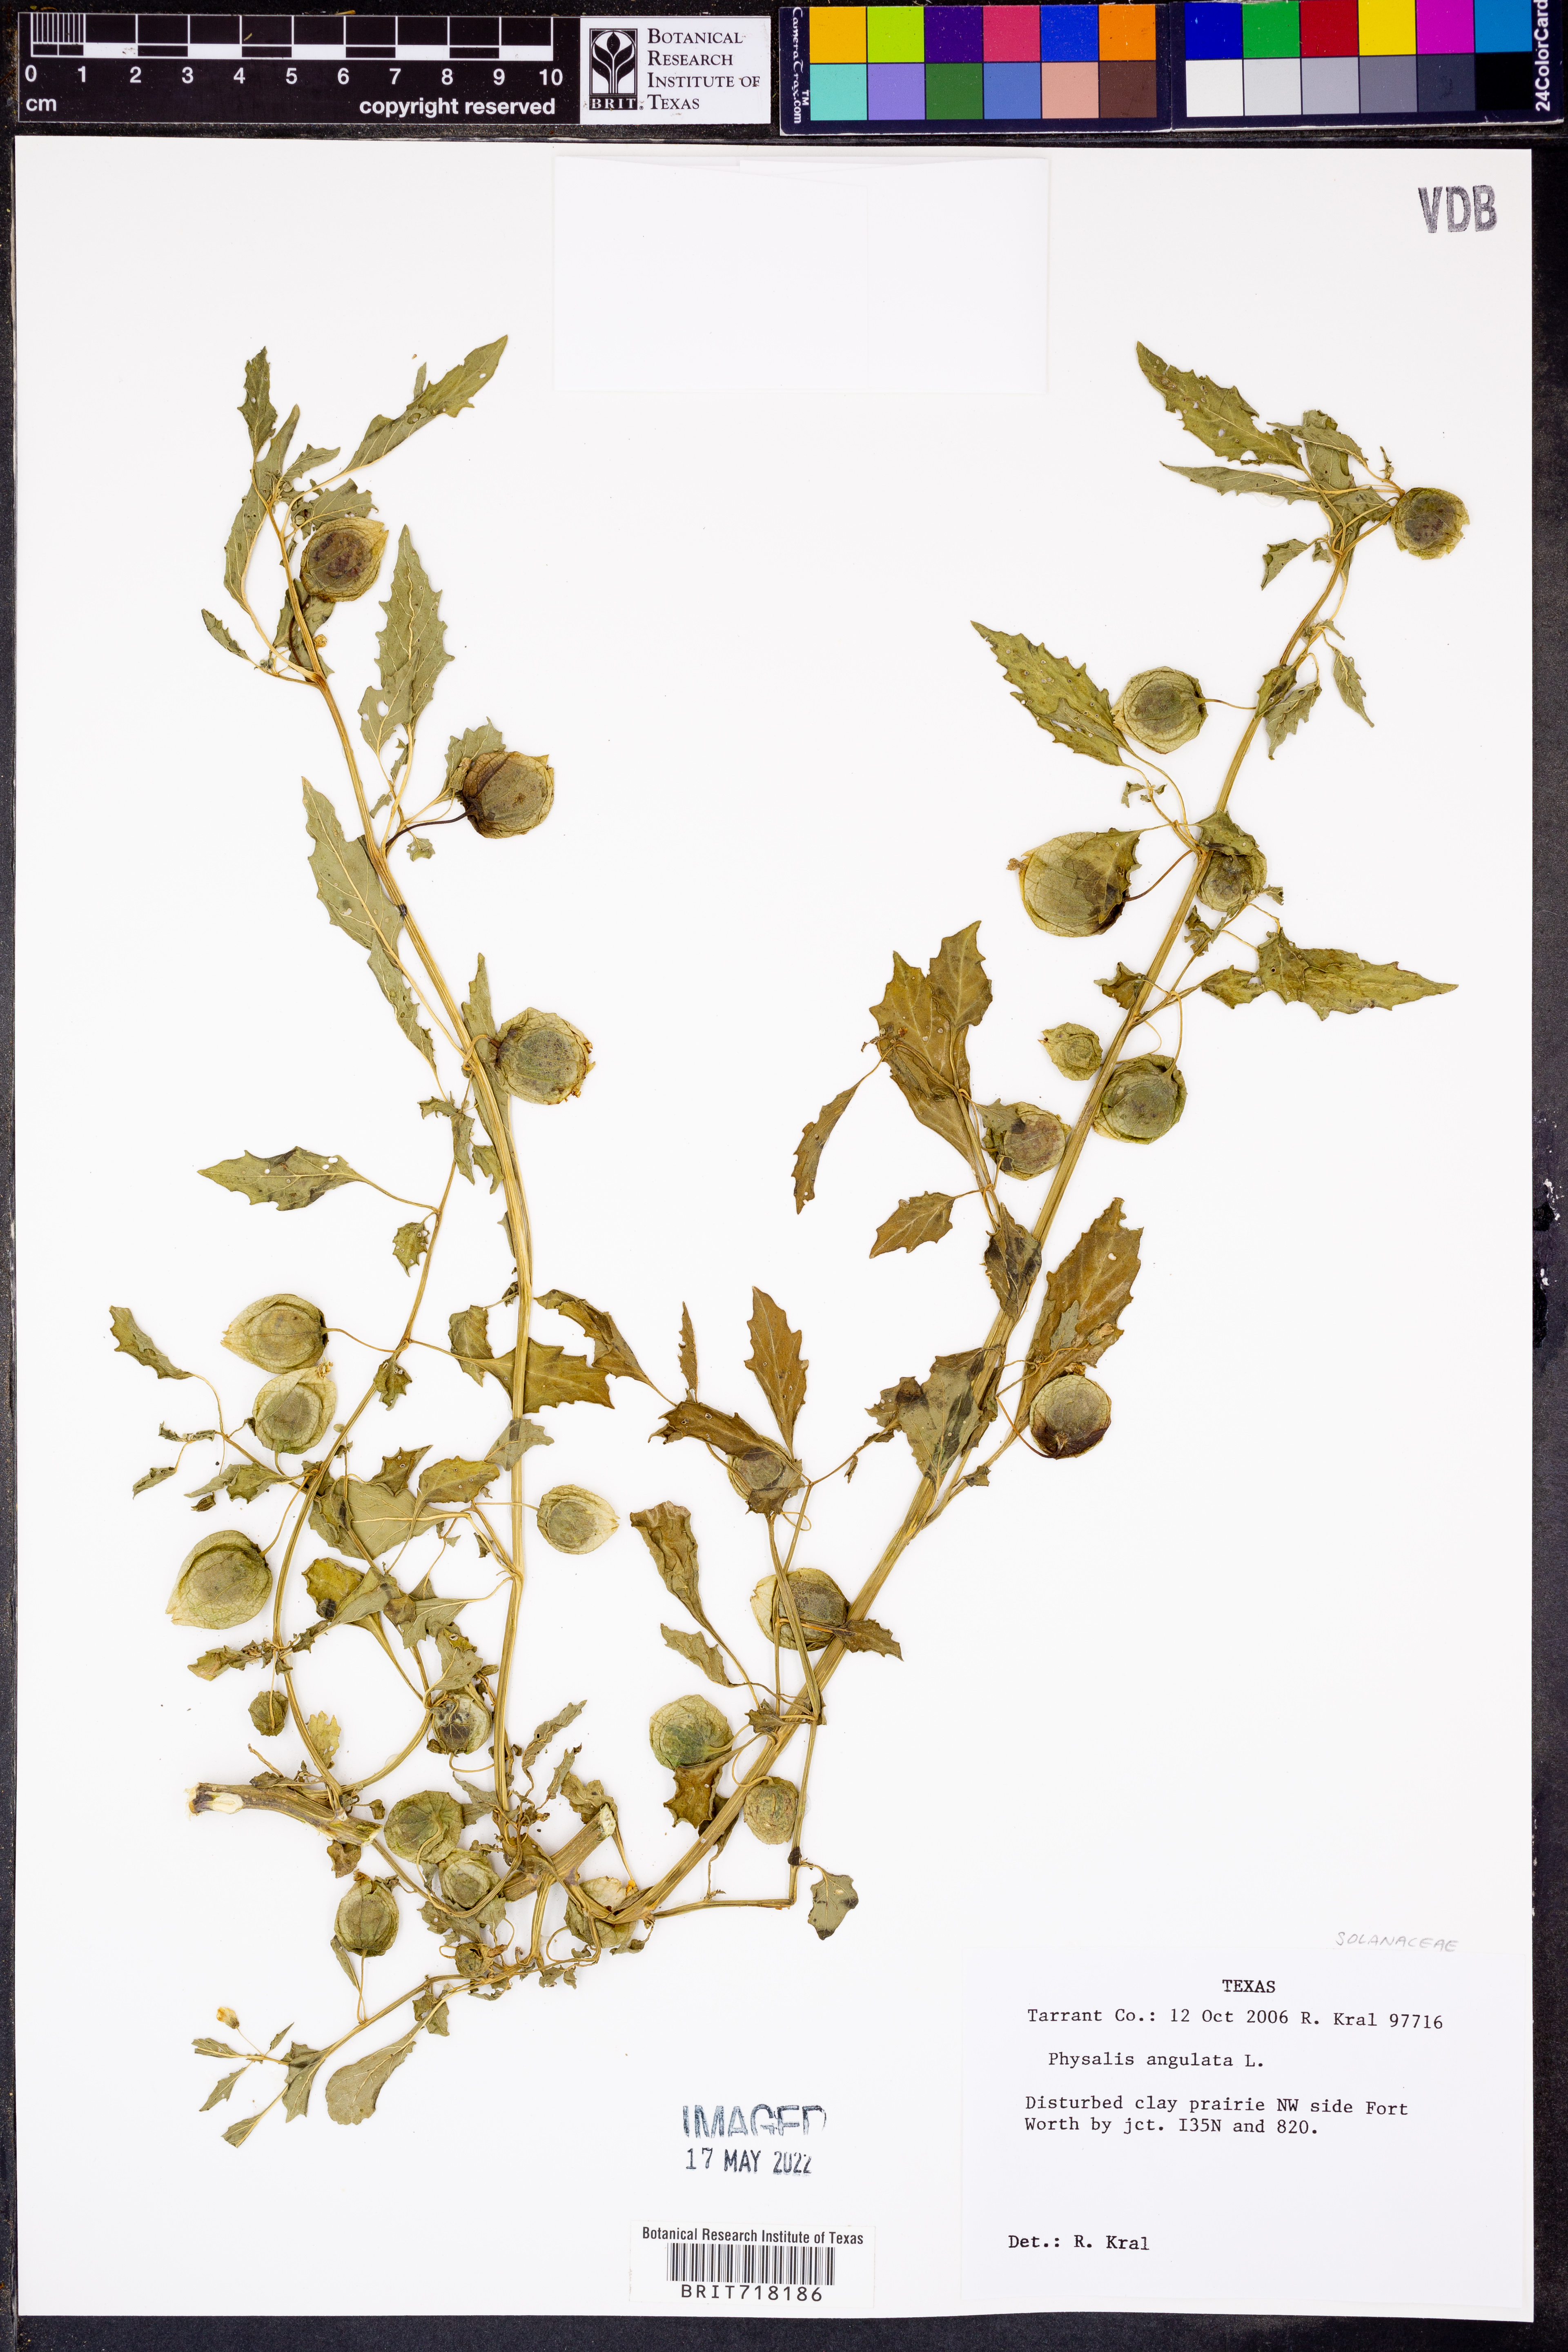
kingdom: Plantae
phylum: Tracheophyta
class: Magnoliopsida
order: Solanales
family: Solanaceae
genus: Physalis
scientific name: Physalis angulata
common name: Angular winter-cherry
